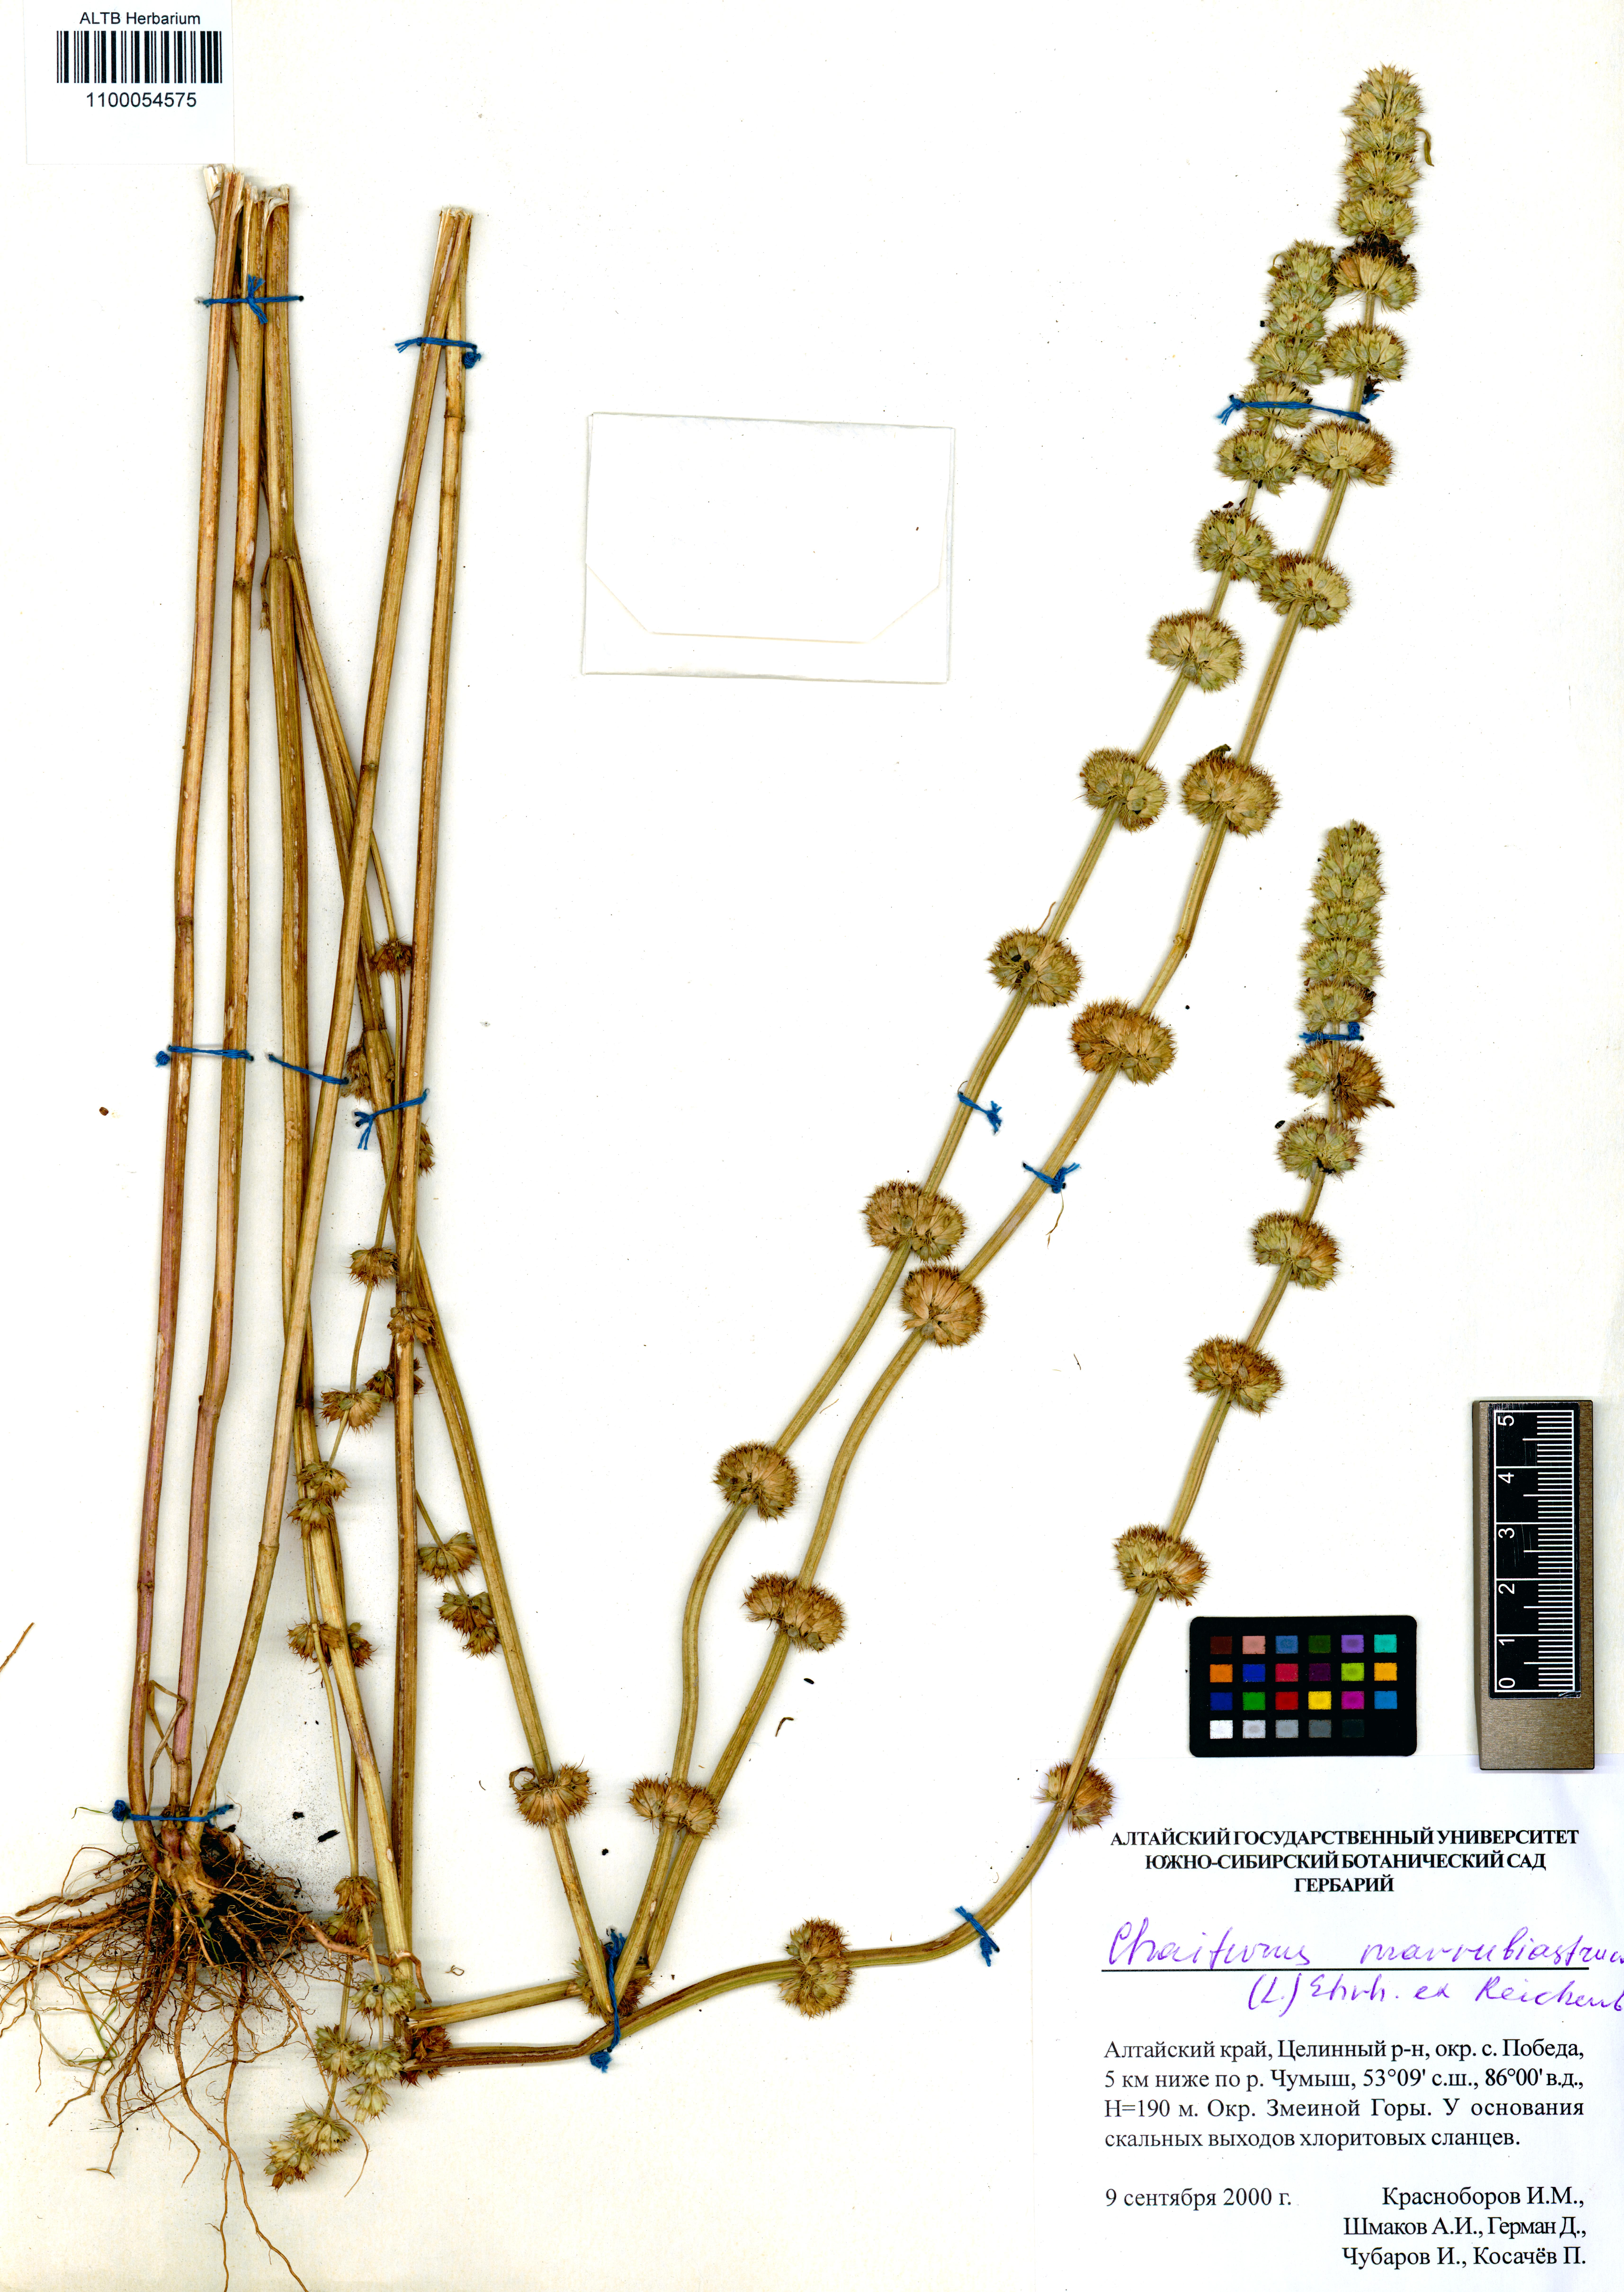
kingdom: Plantae
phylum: Tracheophyta
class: Magnoliopsida
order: Lamiales
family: Lamiaceae
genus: Chaiturus
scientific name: Chaiturus marrubiastrum
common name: Lion's tail
